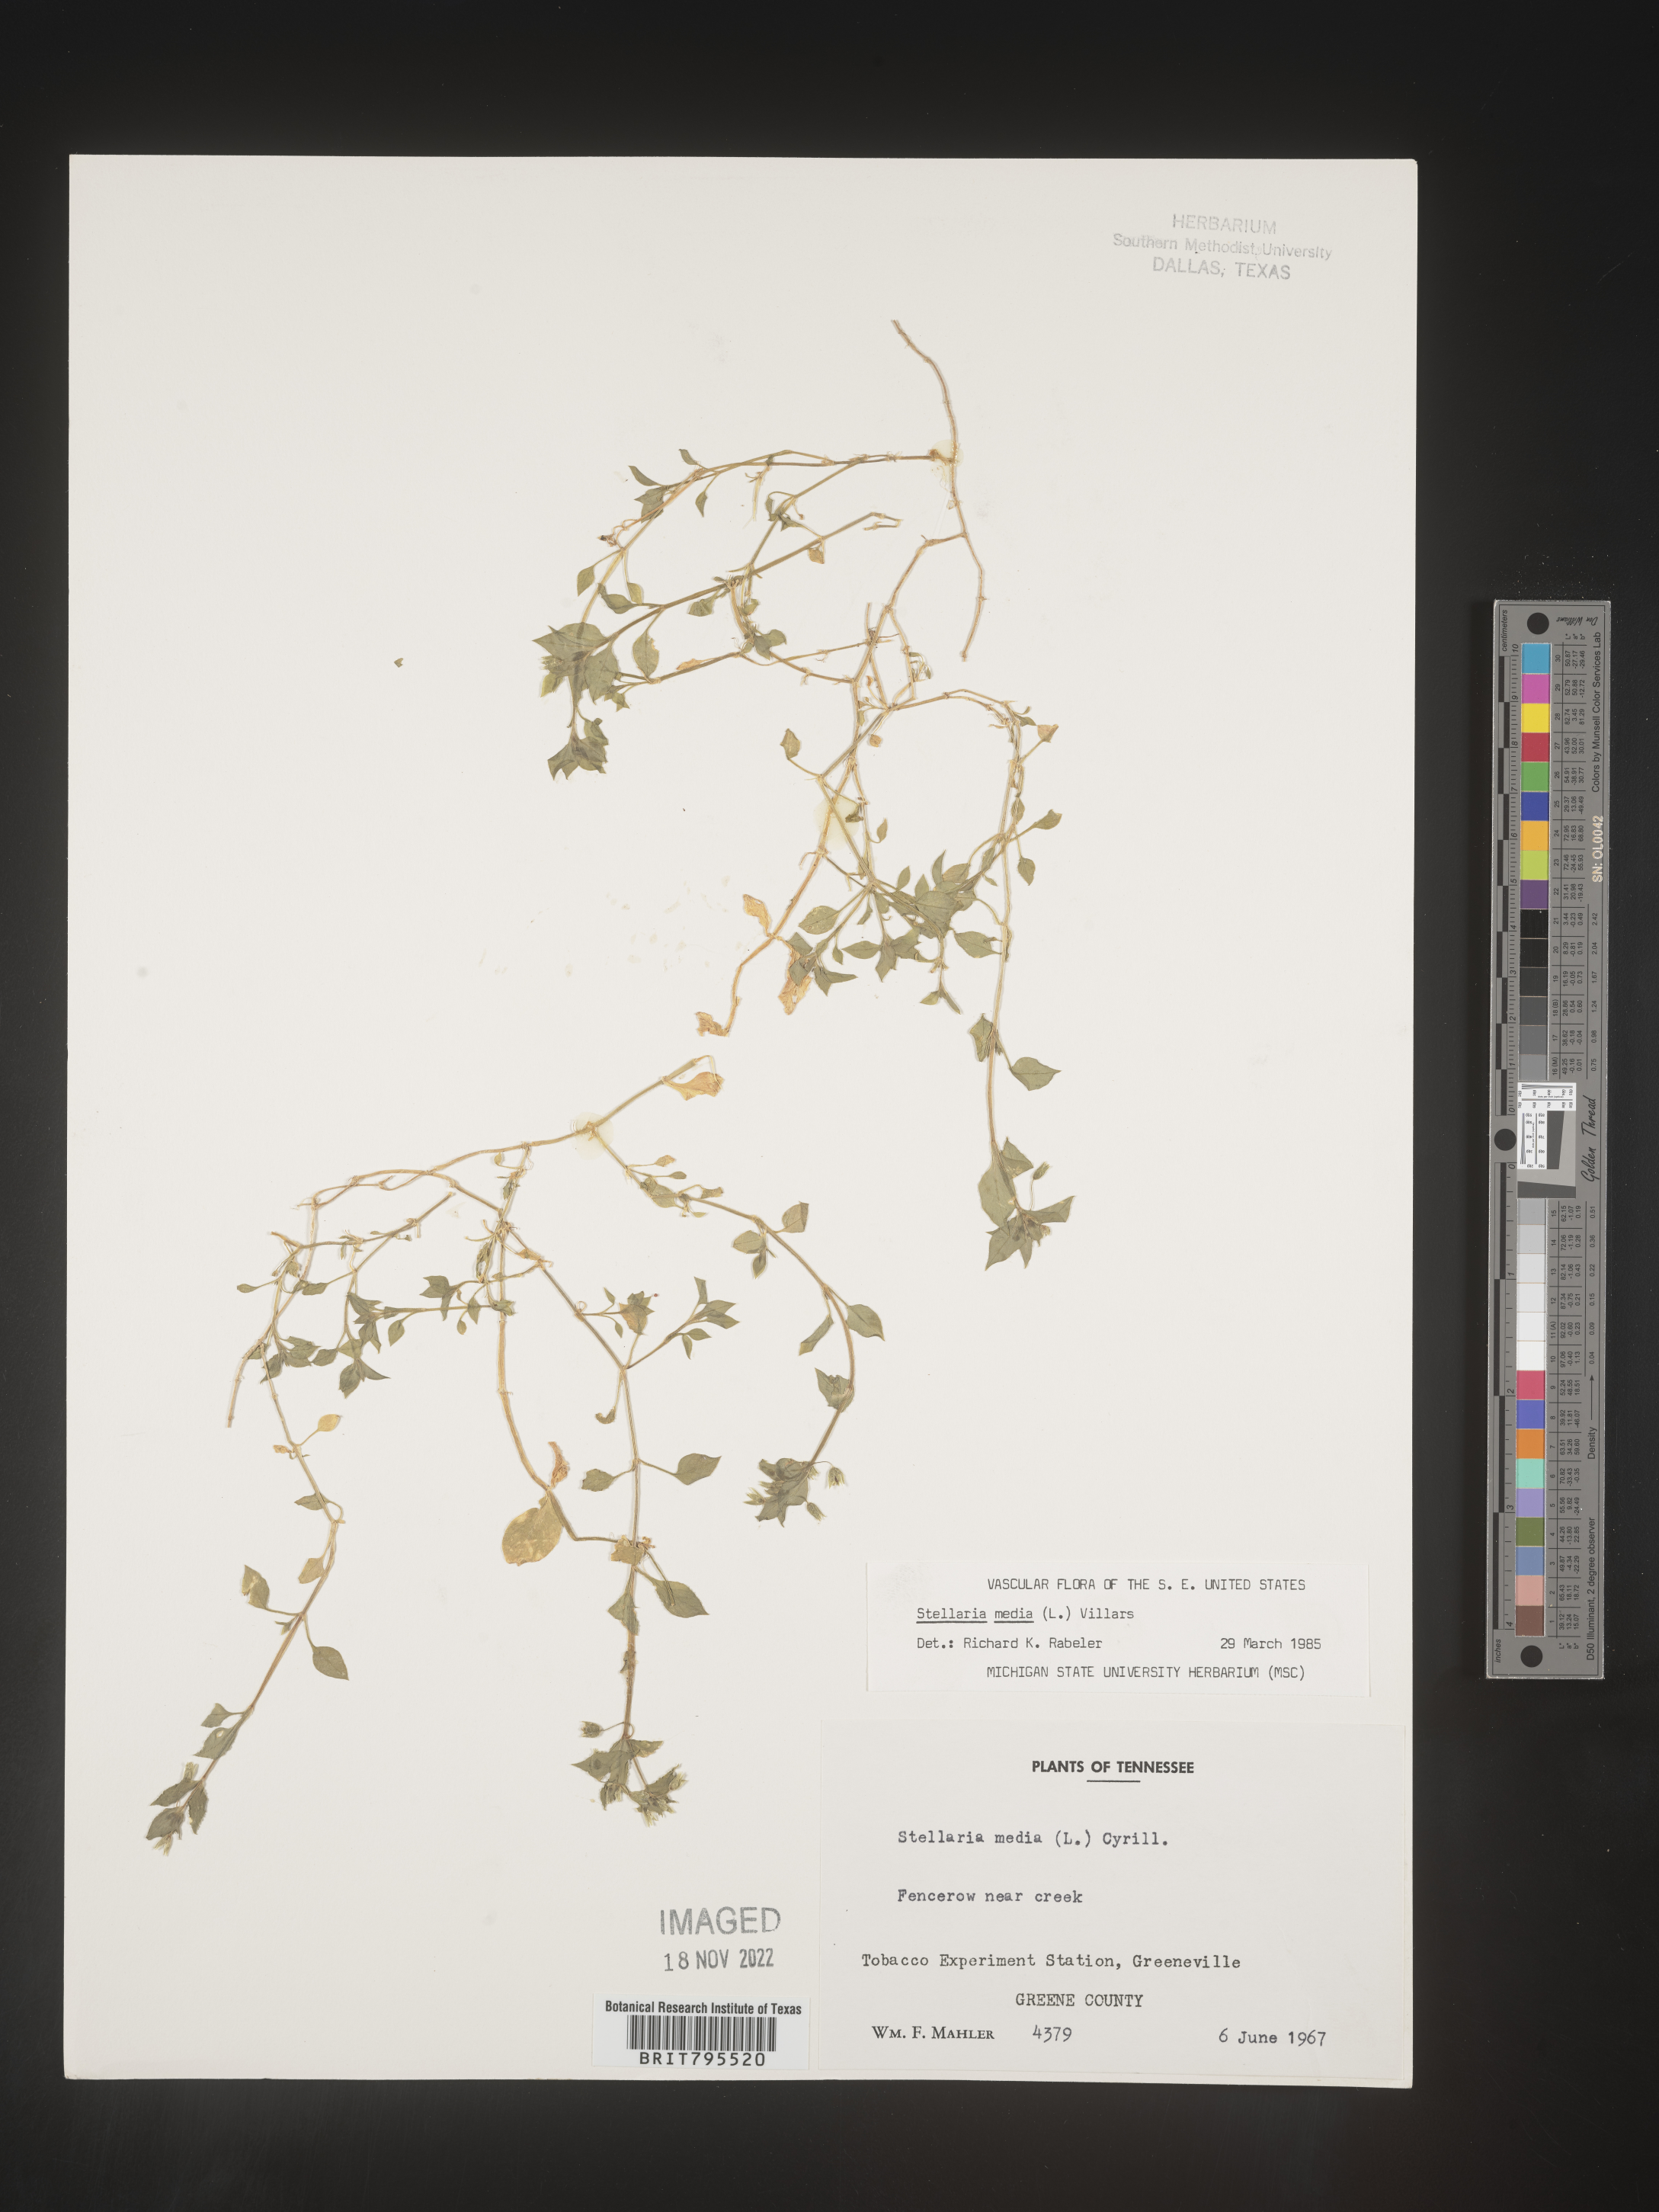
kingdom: Plantae
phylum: Tracheophyta
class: Magnoliopsida
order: Caryophyllales
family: Caryophyllaceae
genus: Stellaria
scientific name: Stellaria media
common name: Common chickweed
